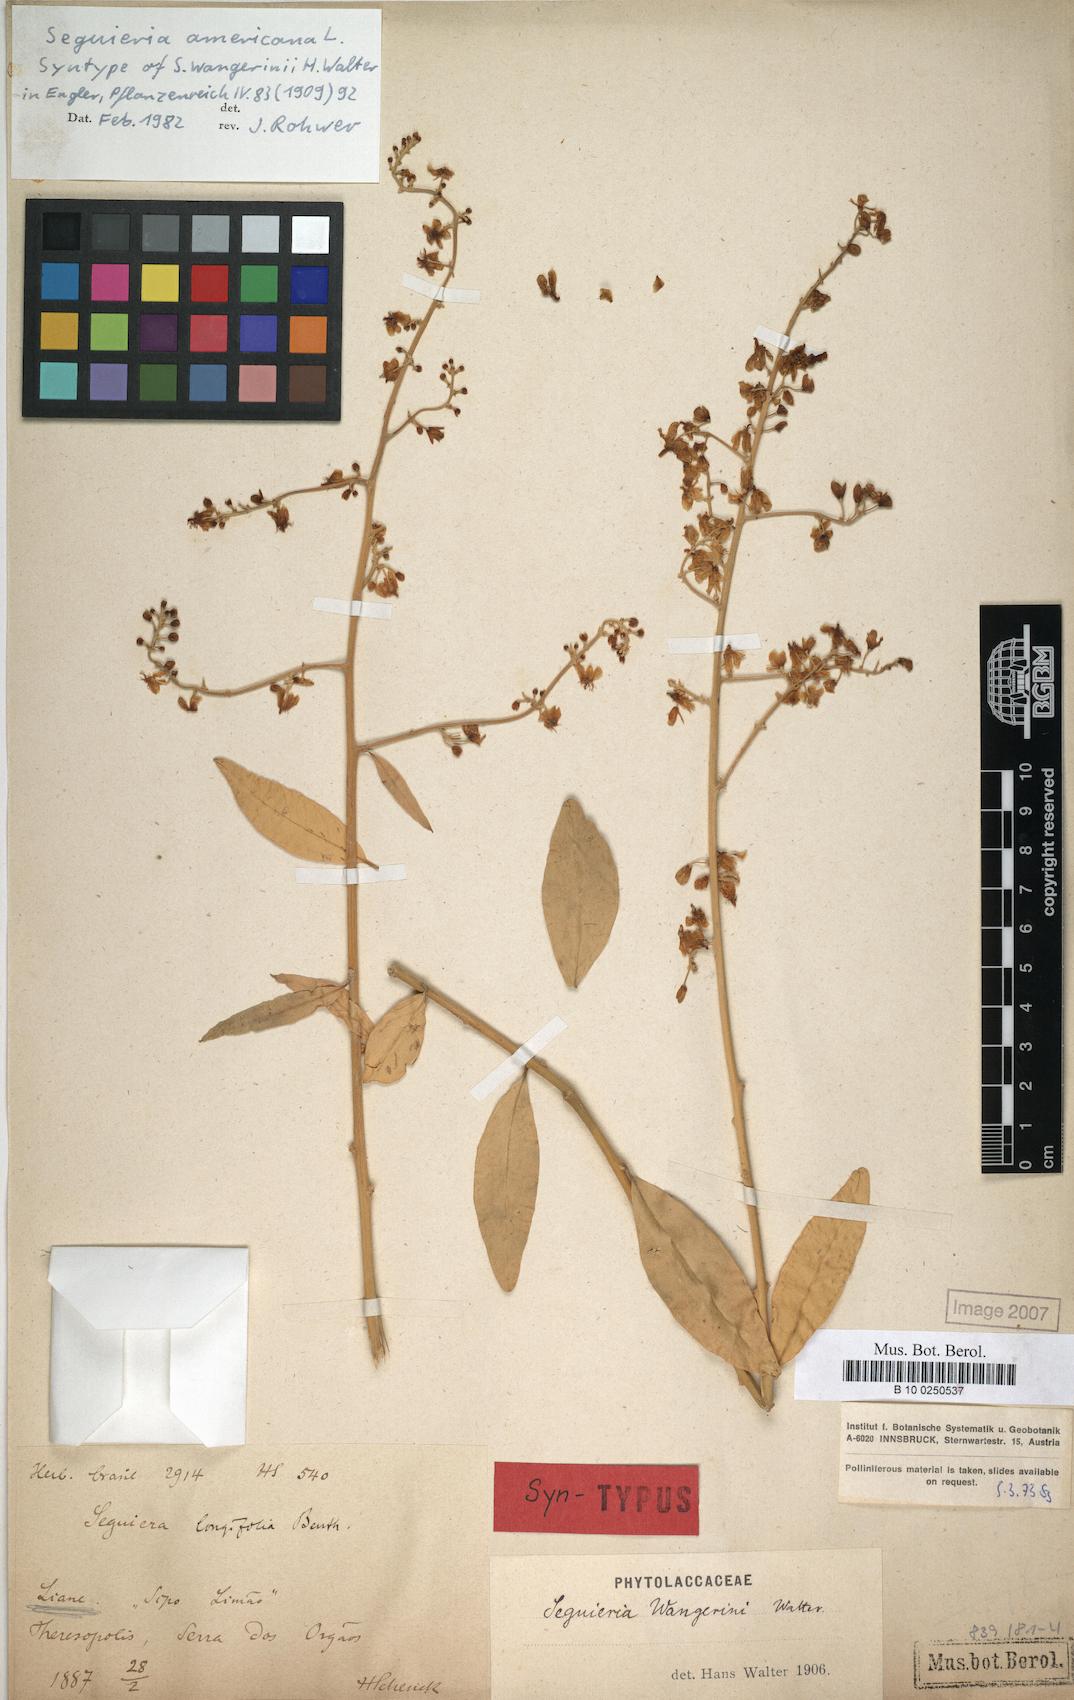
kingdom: Plantae
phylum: Tracheophyta
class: Magnoliopsida
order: Caryophyllales
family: Phytolaccaceae
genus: Seguieria
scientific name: Seguieria americana
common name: American seguieria
